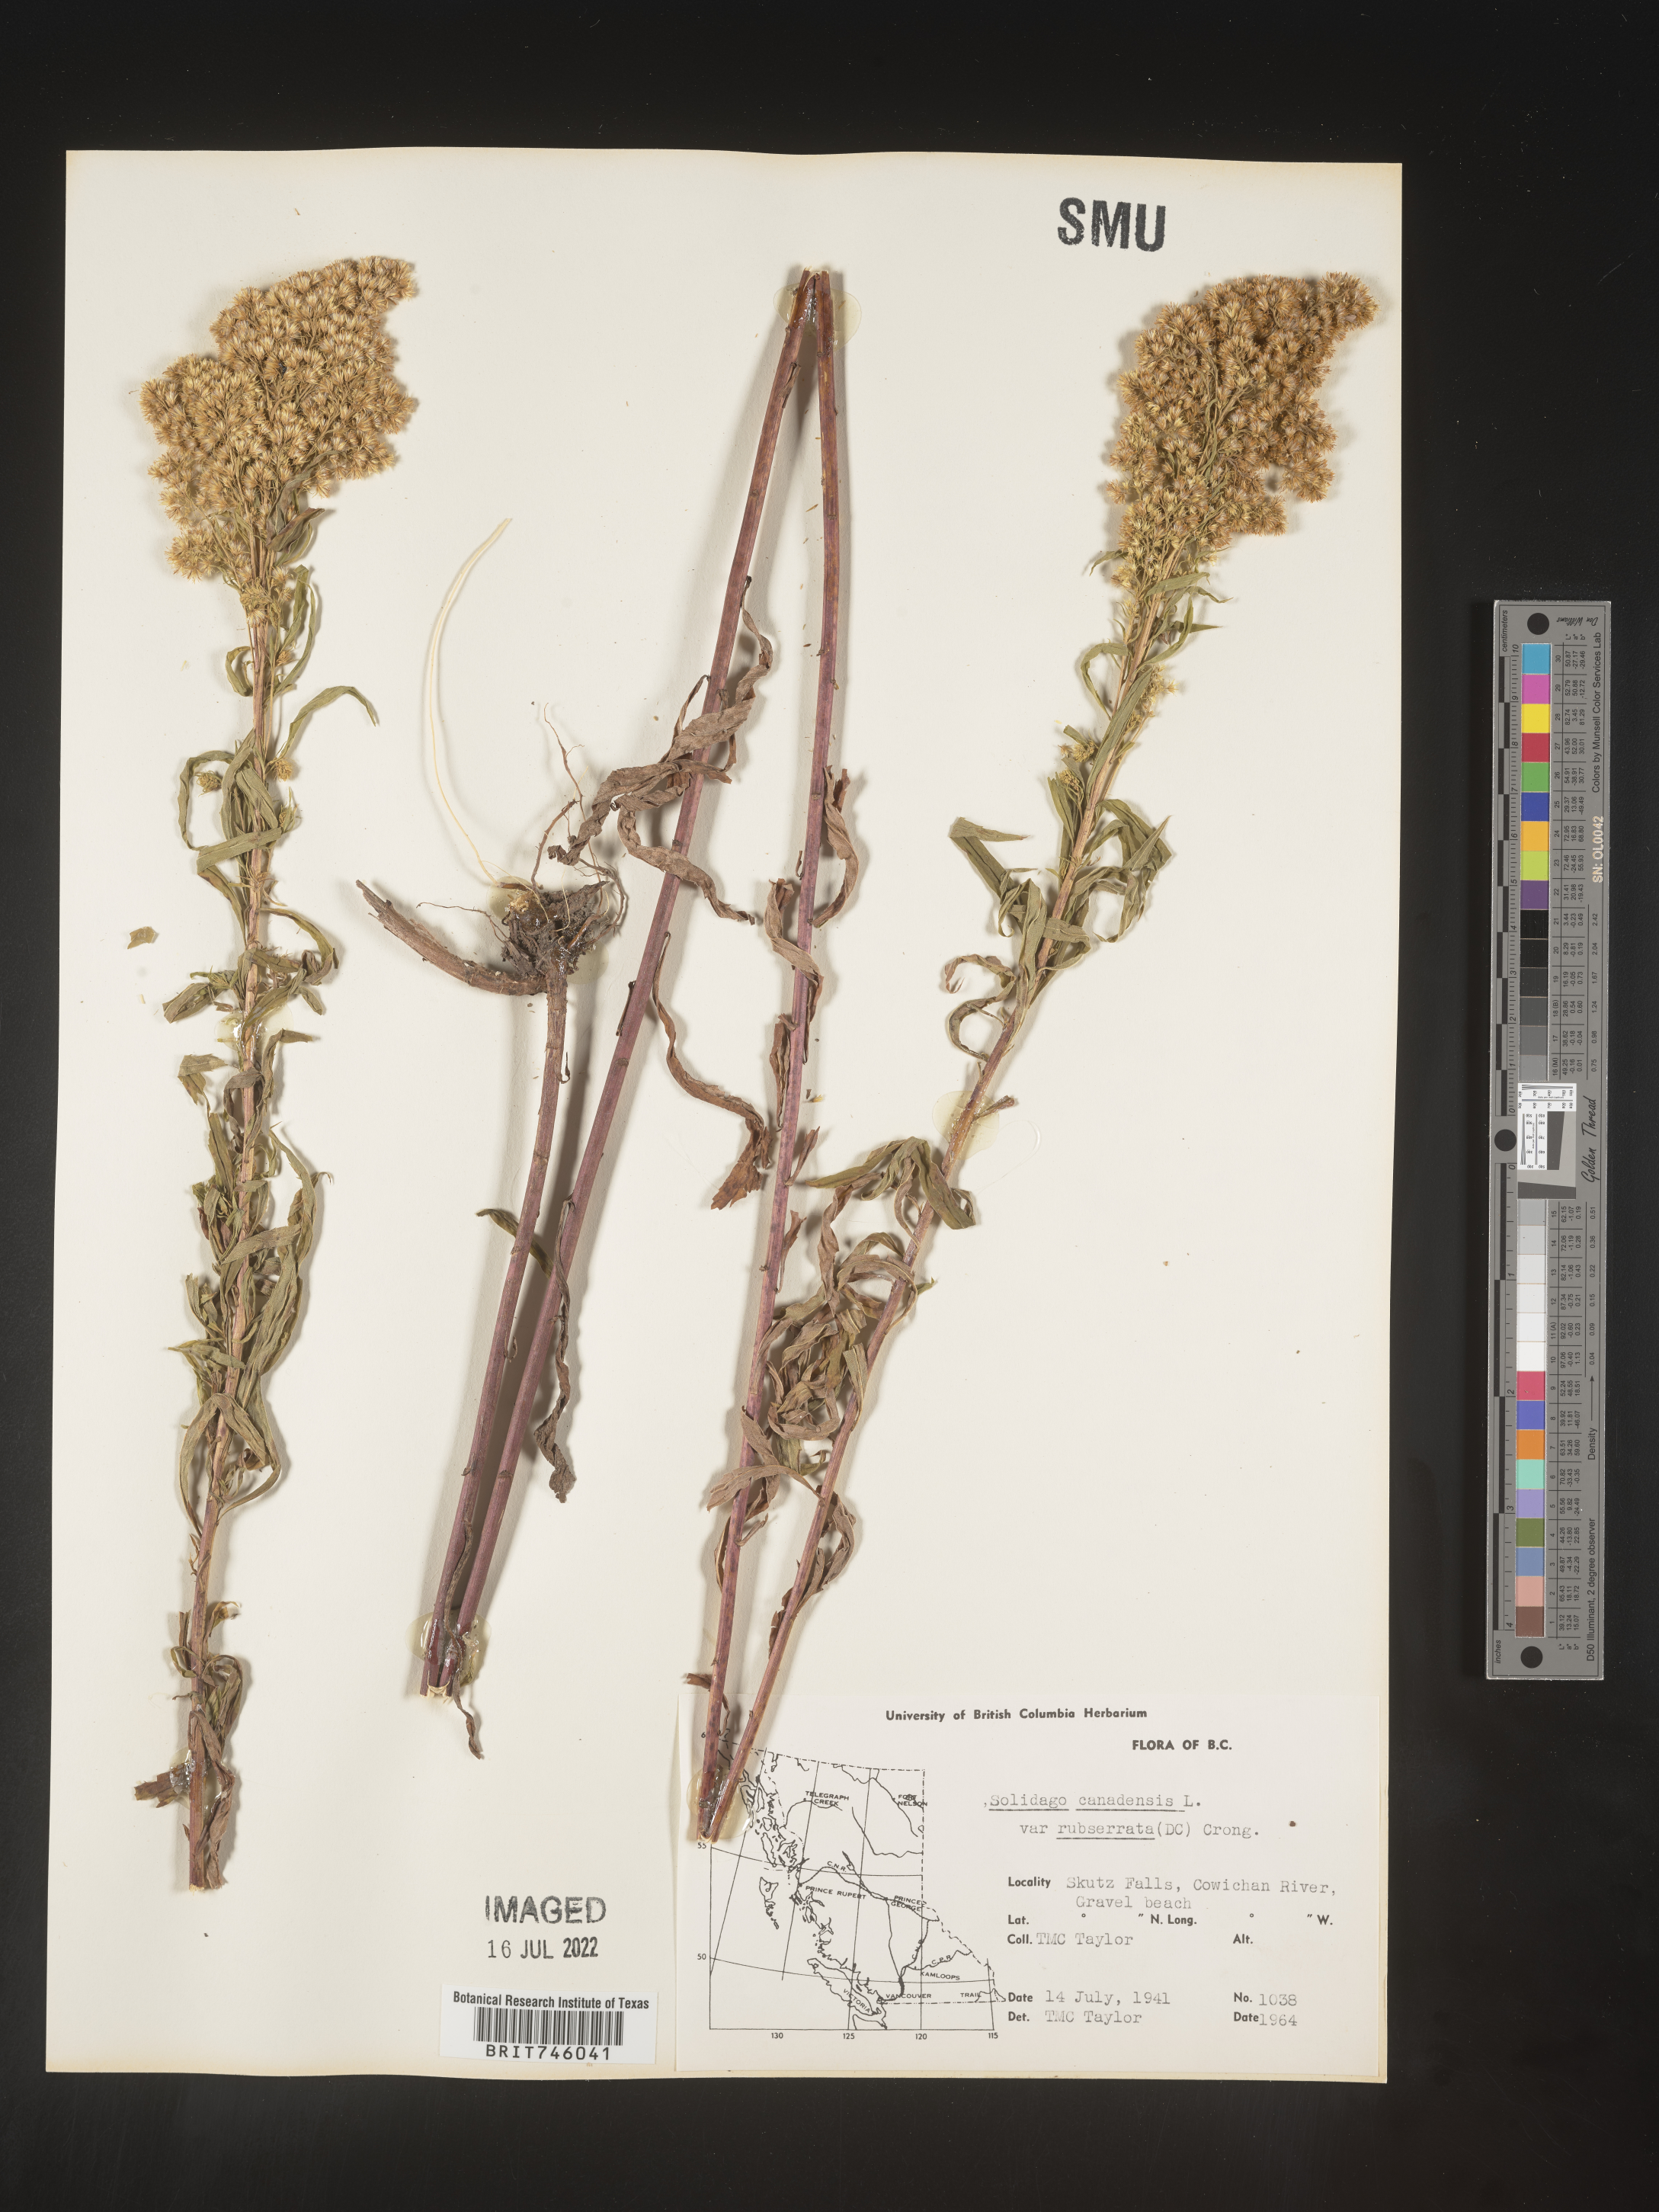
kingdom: Plantae
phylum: Tracheophyta
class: Magnoliopsida
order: Asterales
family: Asteraceae
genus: Solidago
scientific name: Solidago elongata
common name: Cascade canada goldenrod
